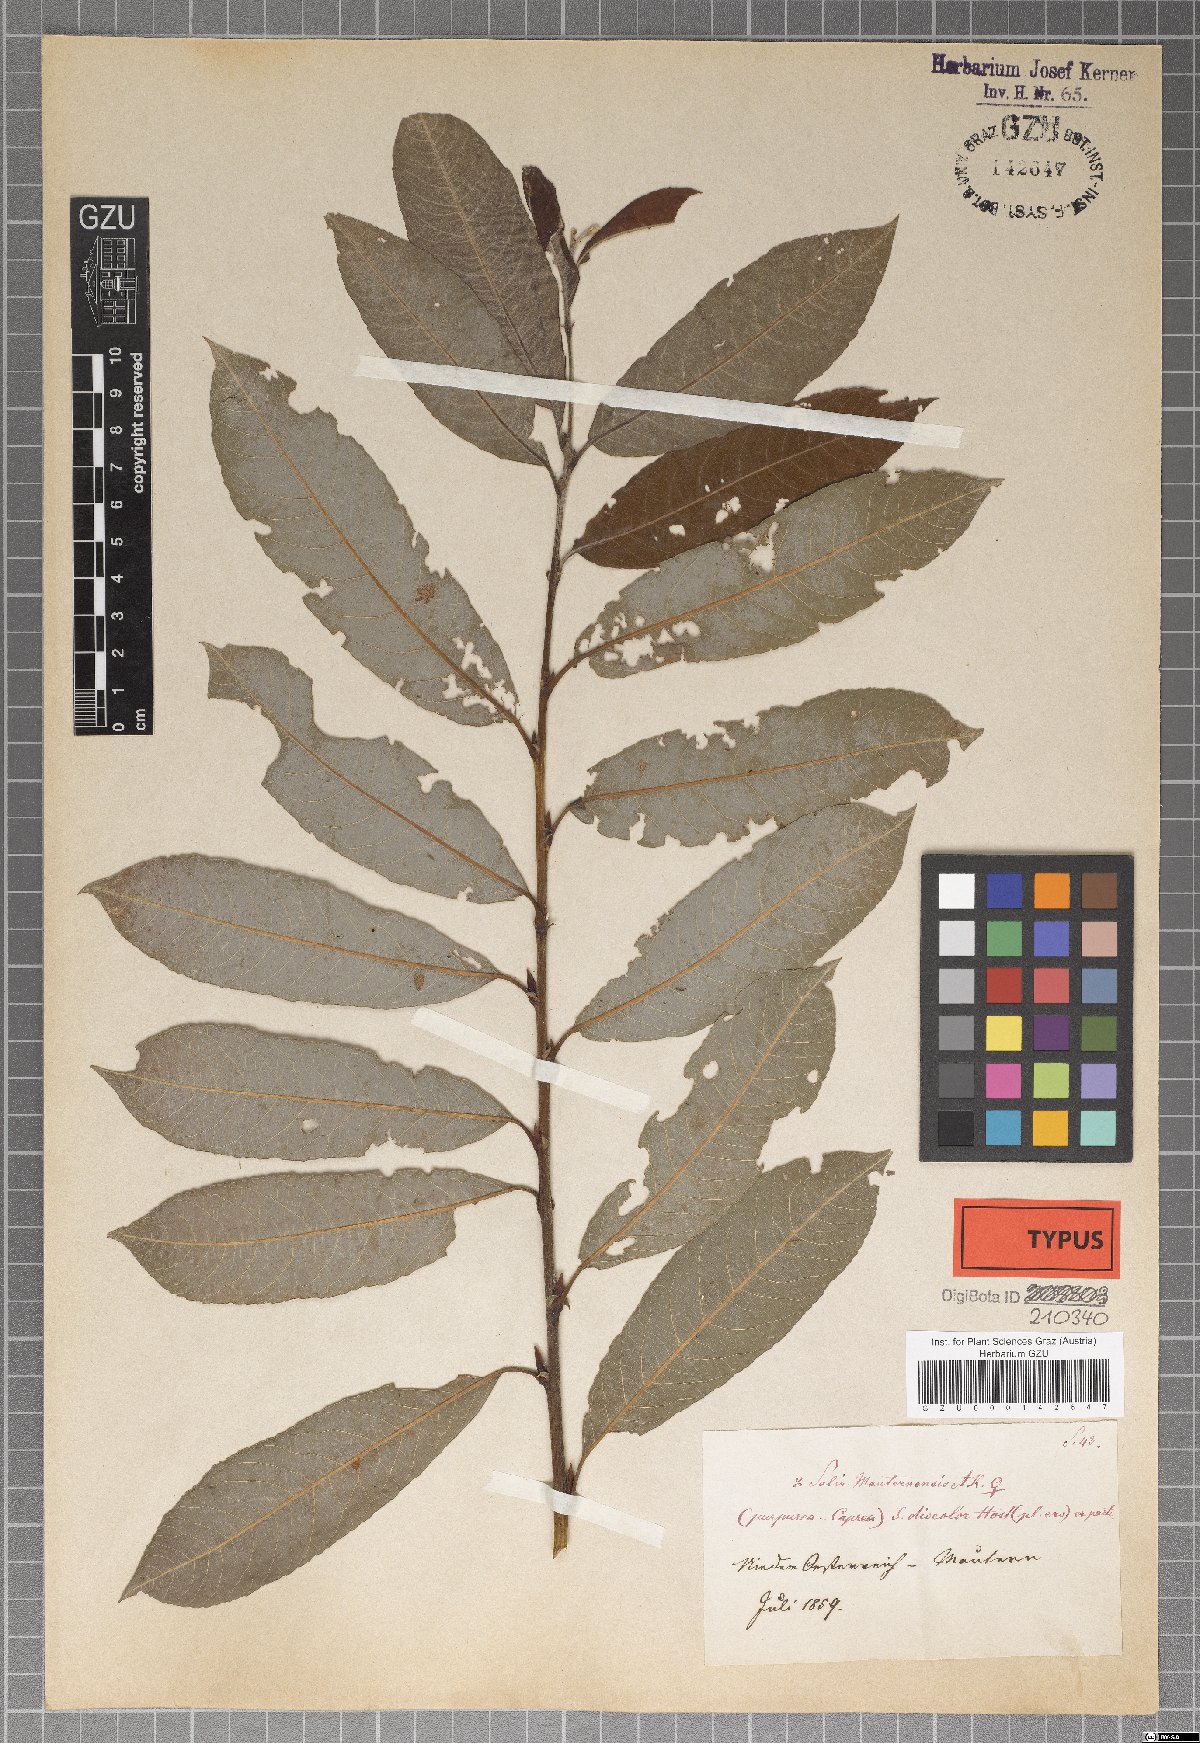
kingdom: Plantae
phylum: Tracheophyta
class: Magnoliopsida
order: Malpighiales
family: Salicaceae
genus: Salix
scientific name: Salix wimmeriana
